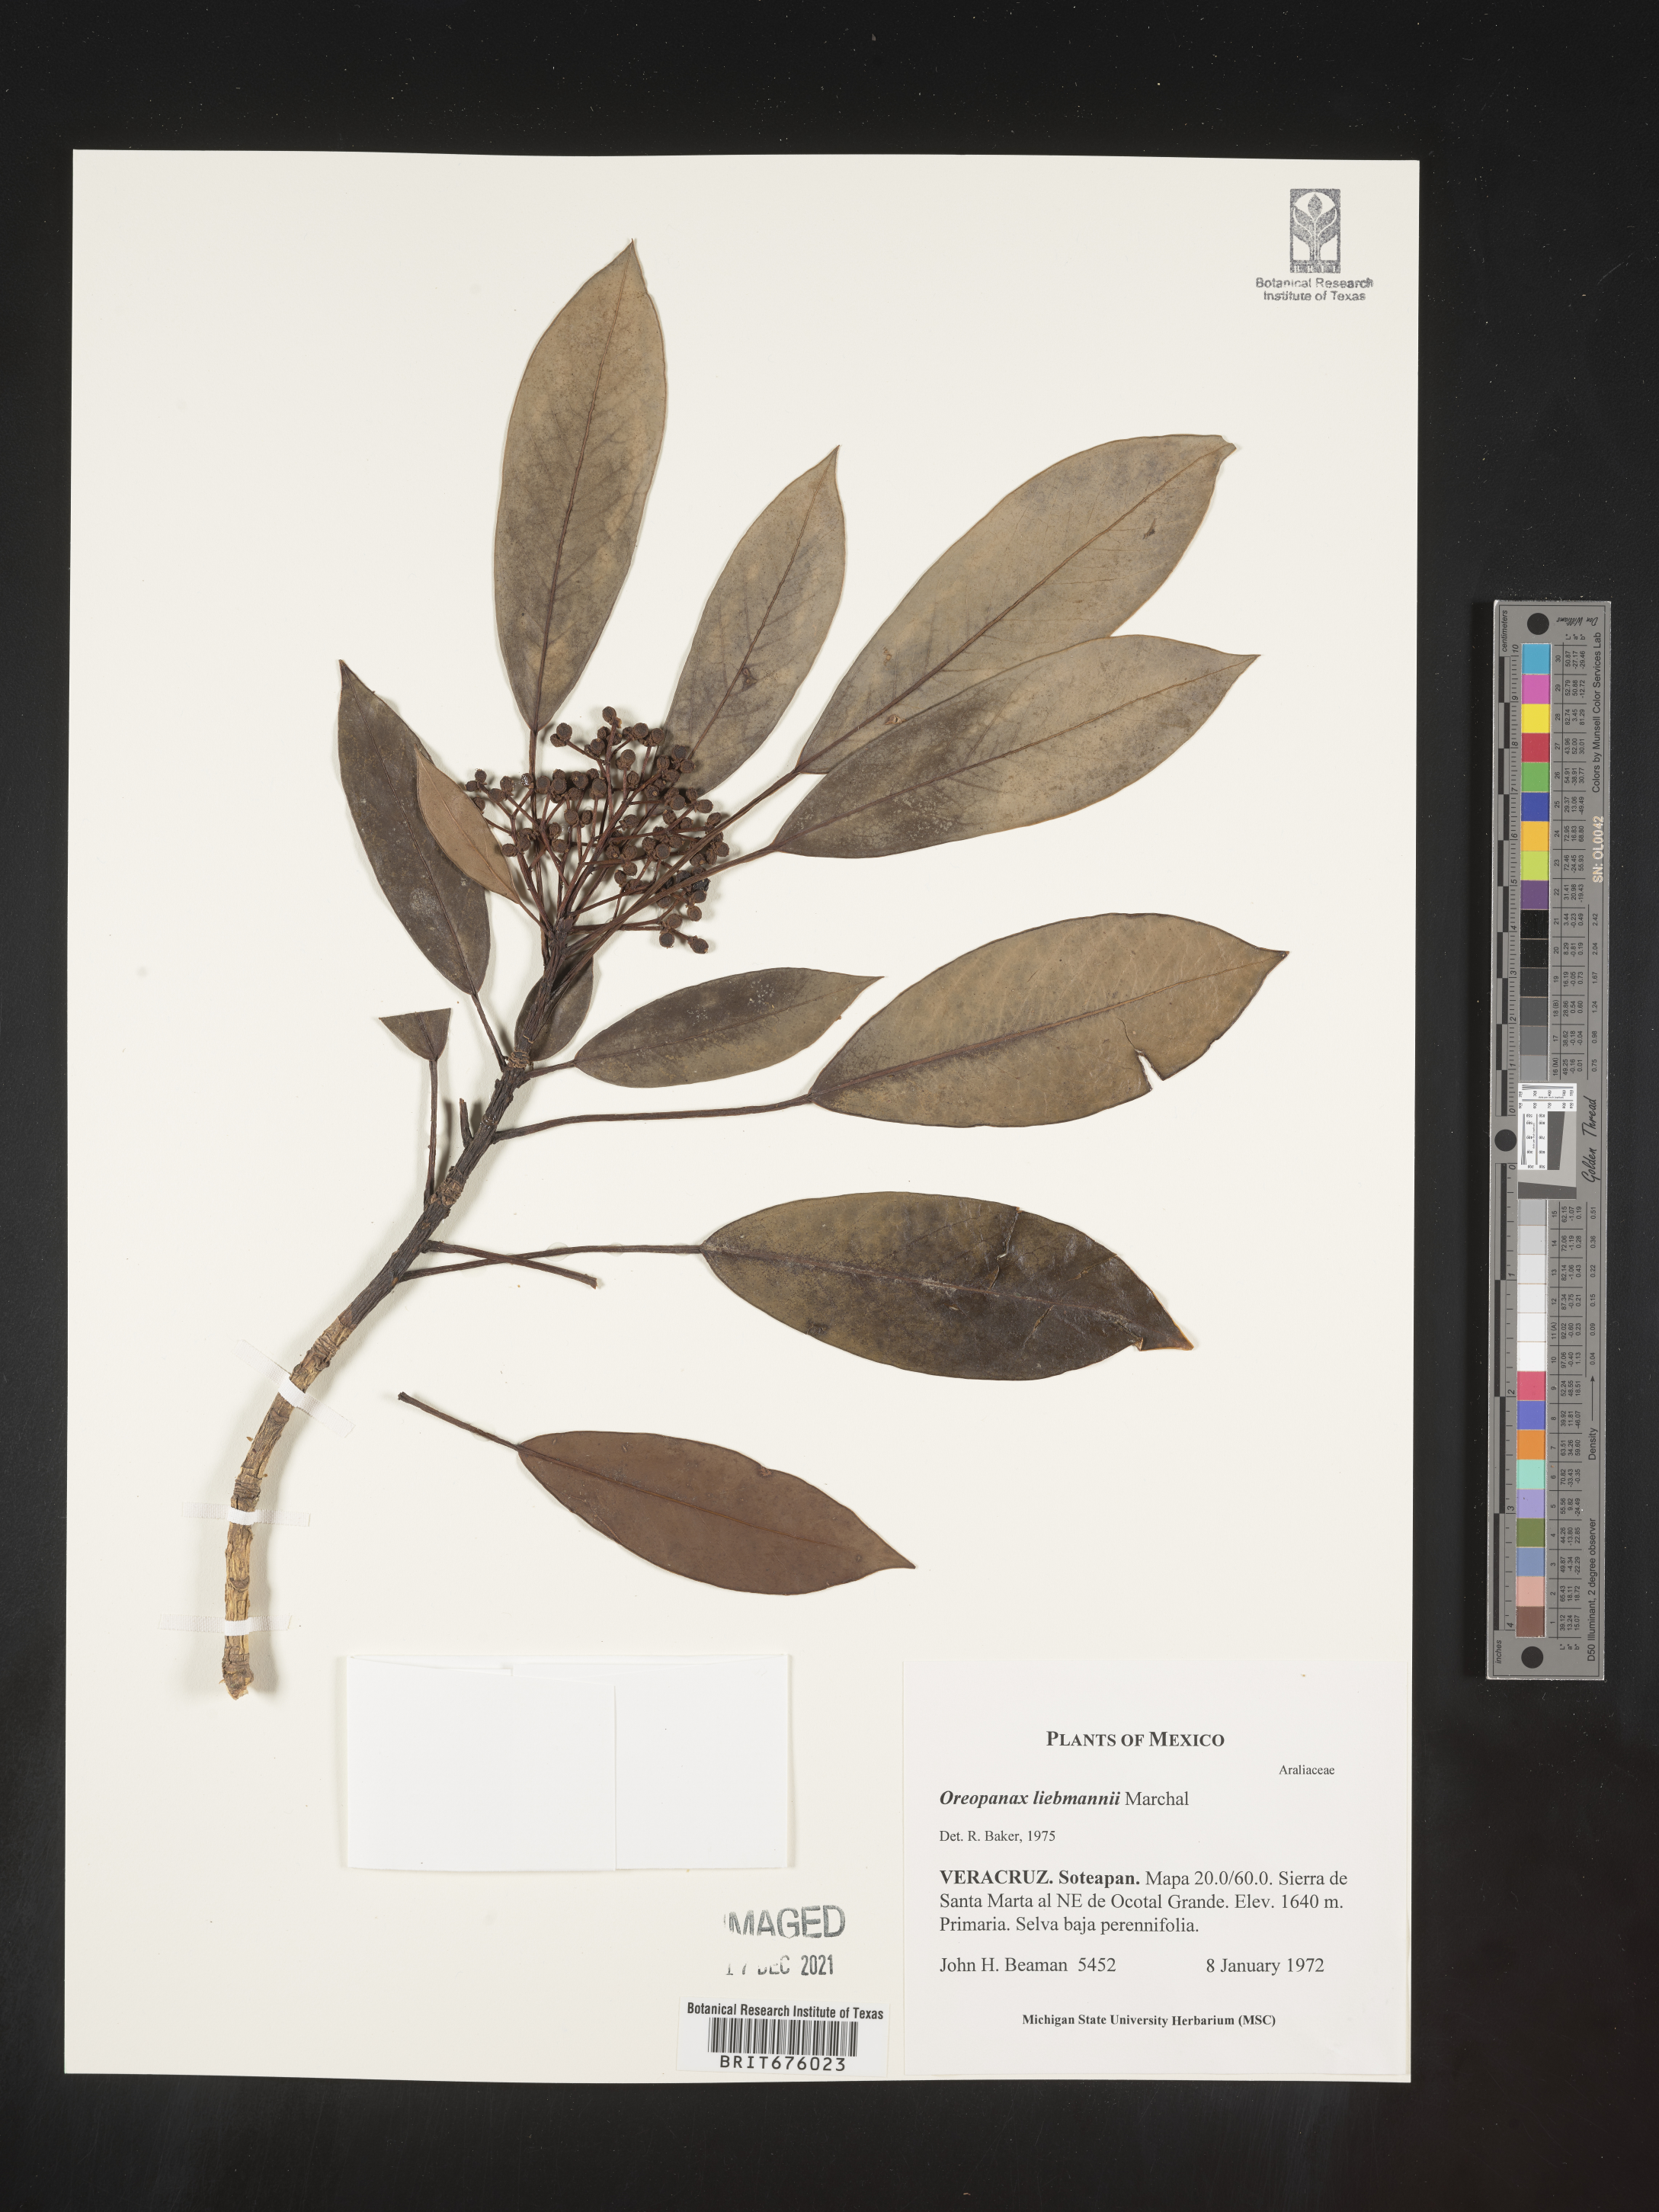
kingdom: Plantae
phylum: Tracheophyta
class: Magnoliopsida
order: Apiales
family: Araliaceae
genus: Oreopanax
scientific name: Oreopanax
